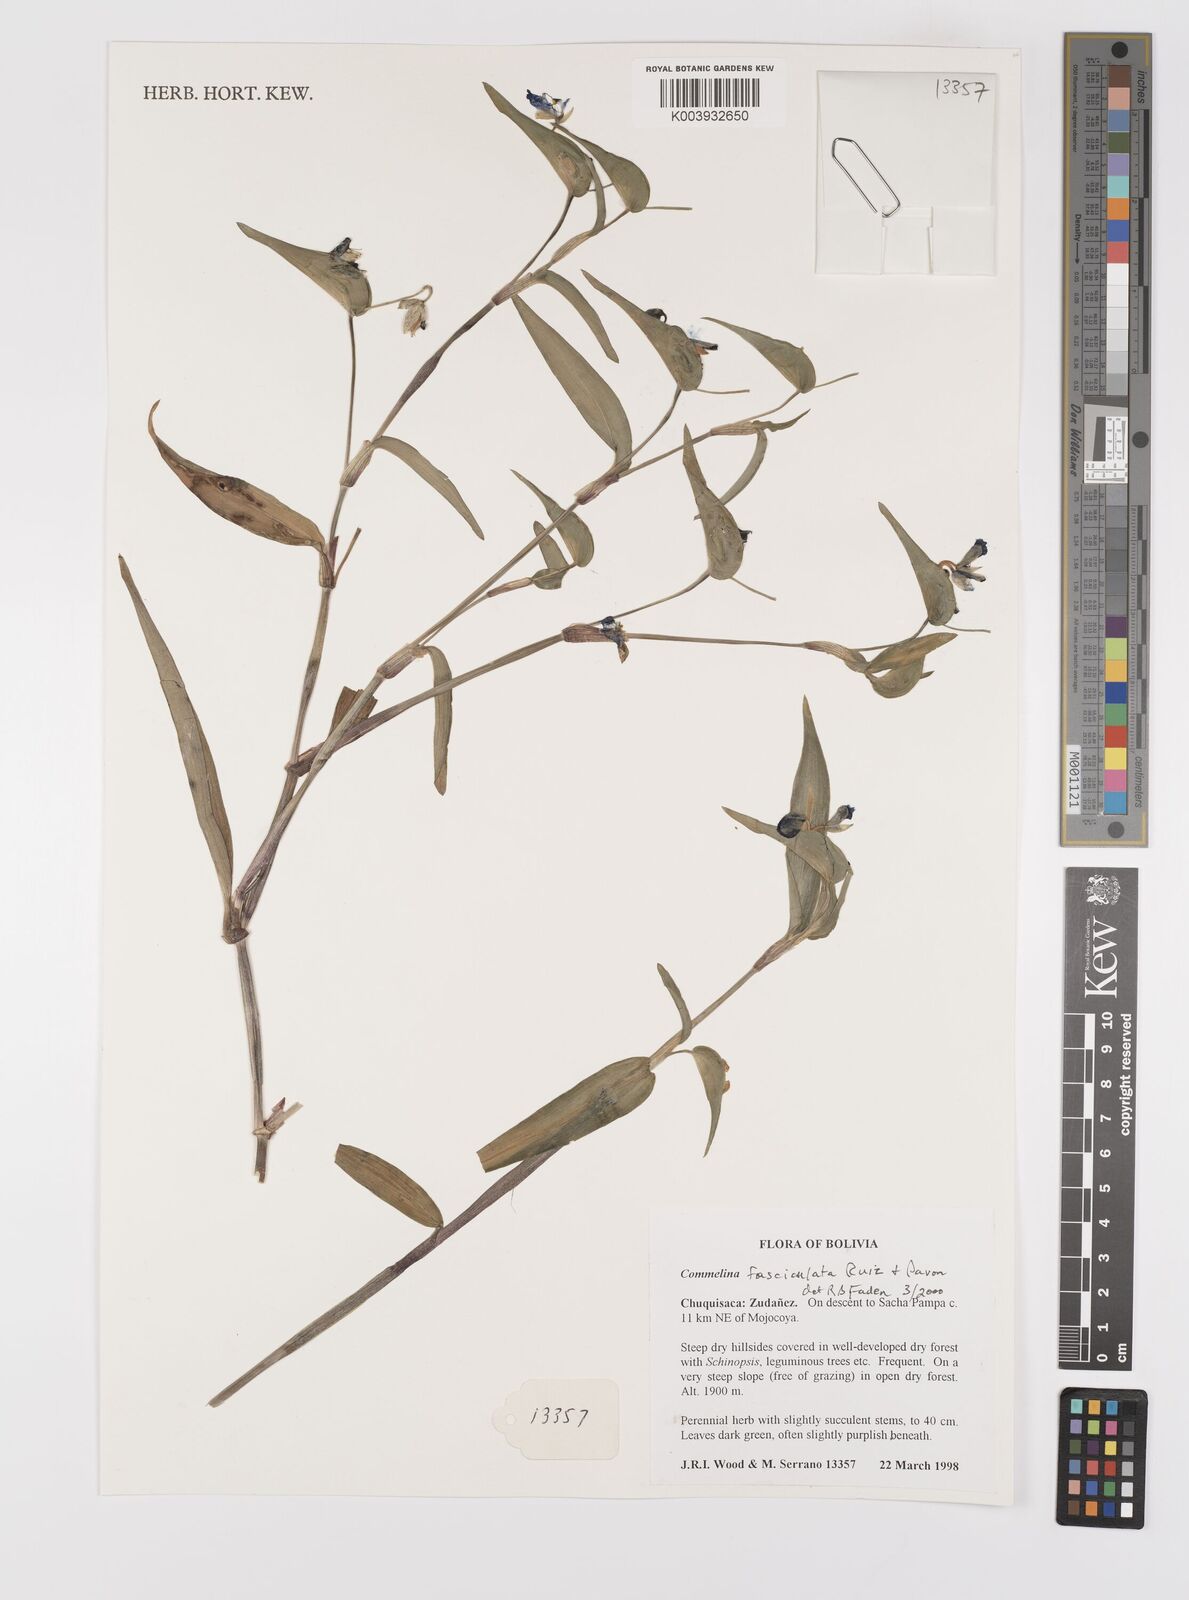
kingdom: Plantae
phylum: Tracheophyta
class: Liliopsida
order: Commelinales
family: Commelinaceae
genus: Commelina
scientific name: Commelina tuberosa
